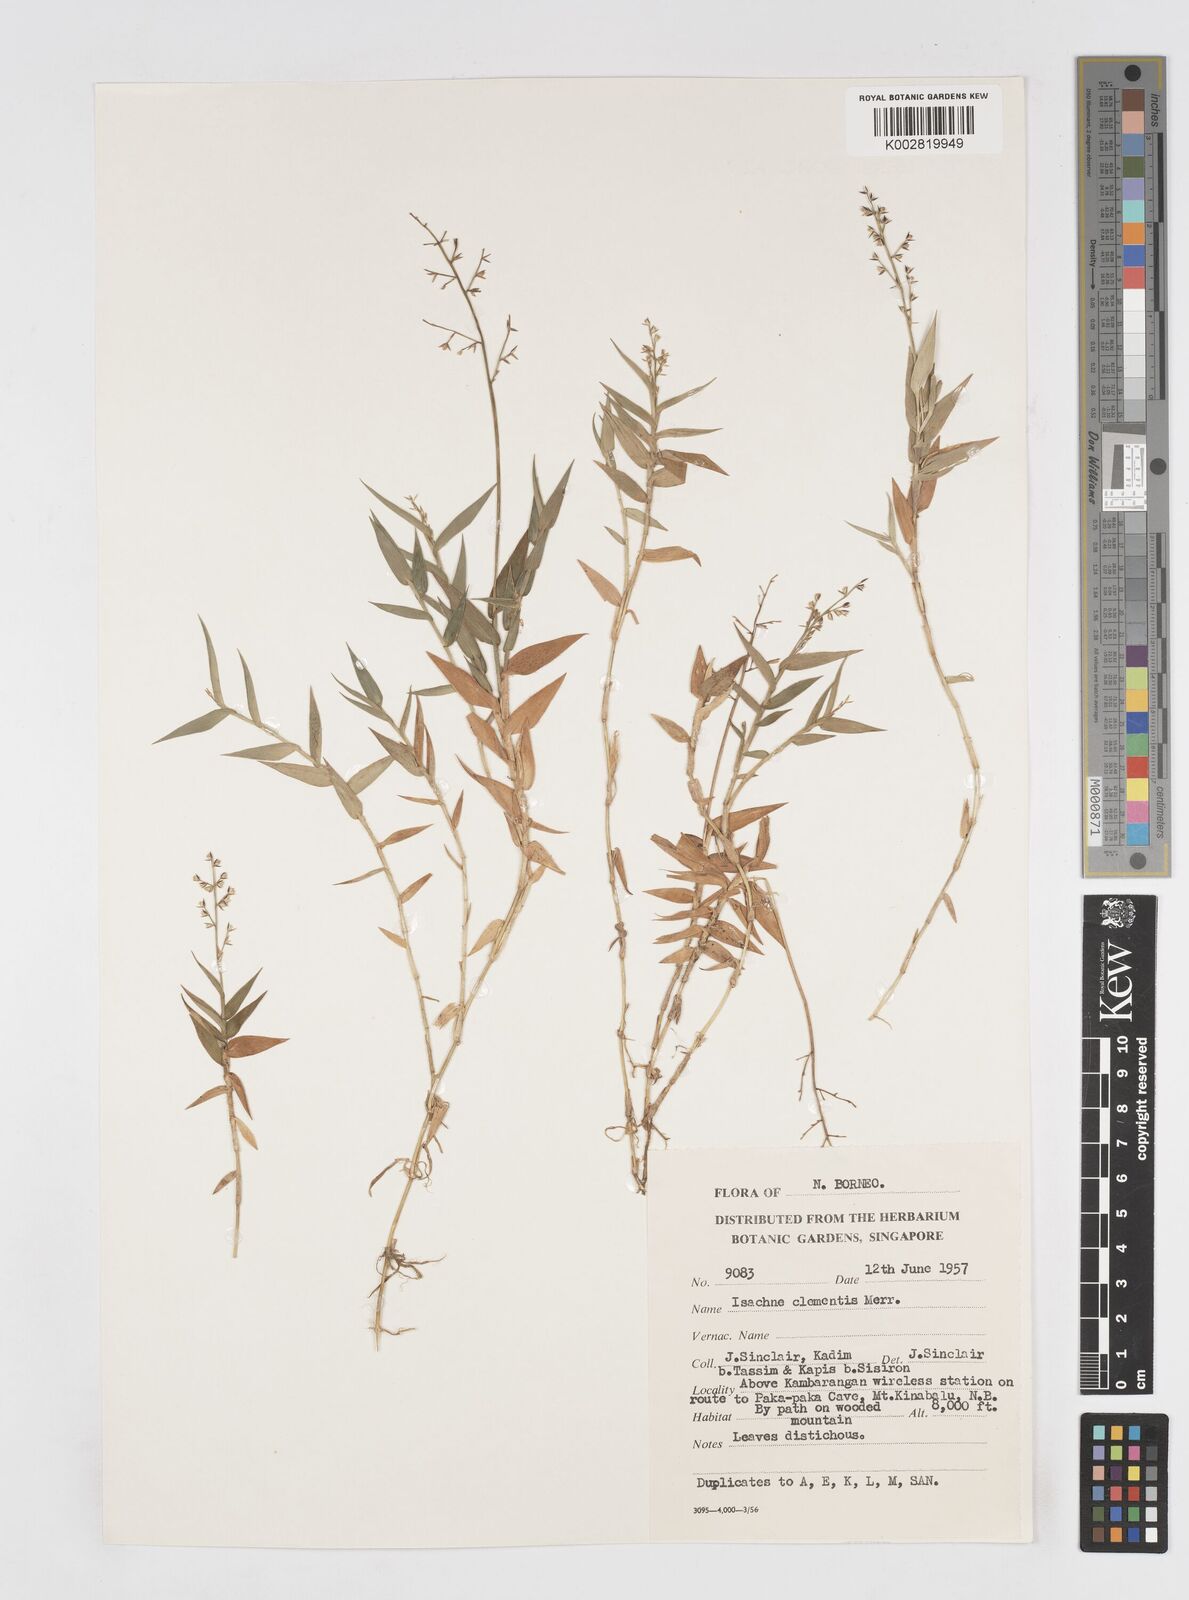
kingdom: Plantae
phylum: Tracheophyta
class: Liliopsida
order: Poales
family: Poaceae
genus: Isachne
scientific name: Isachne clementis
